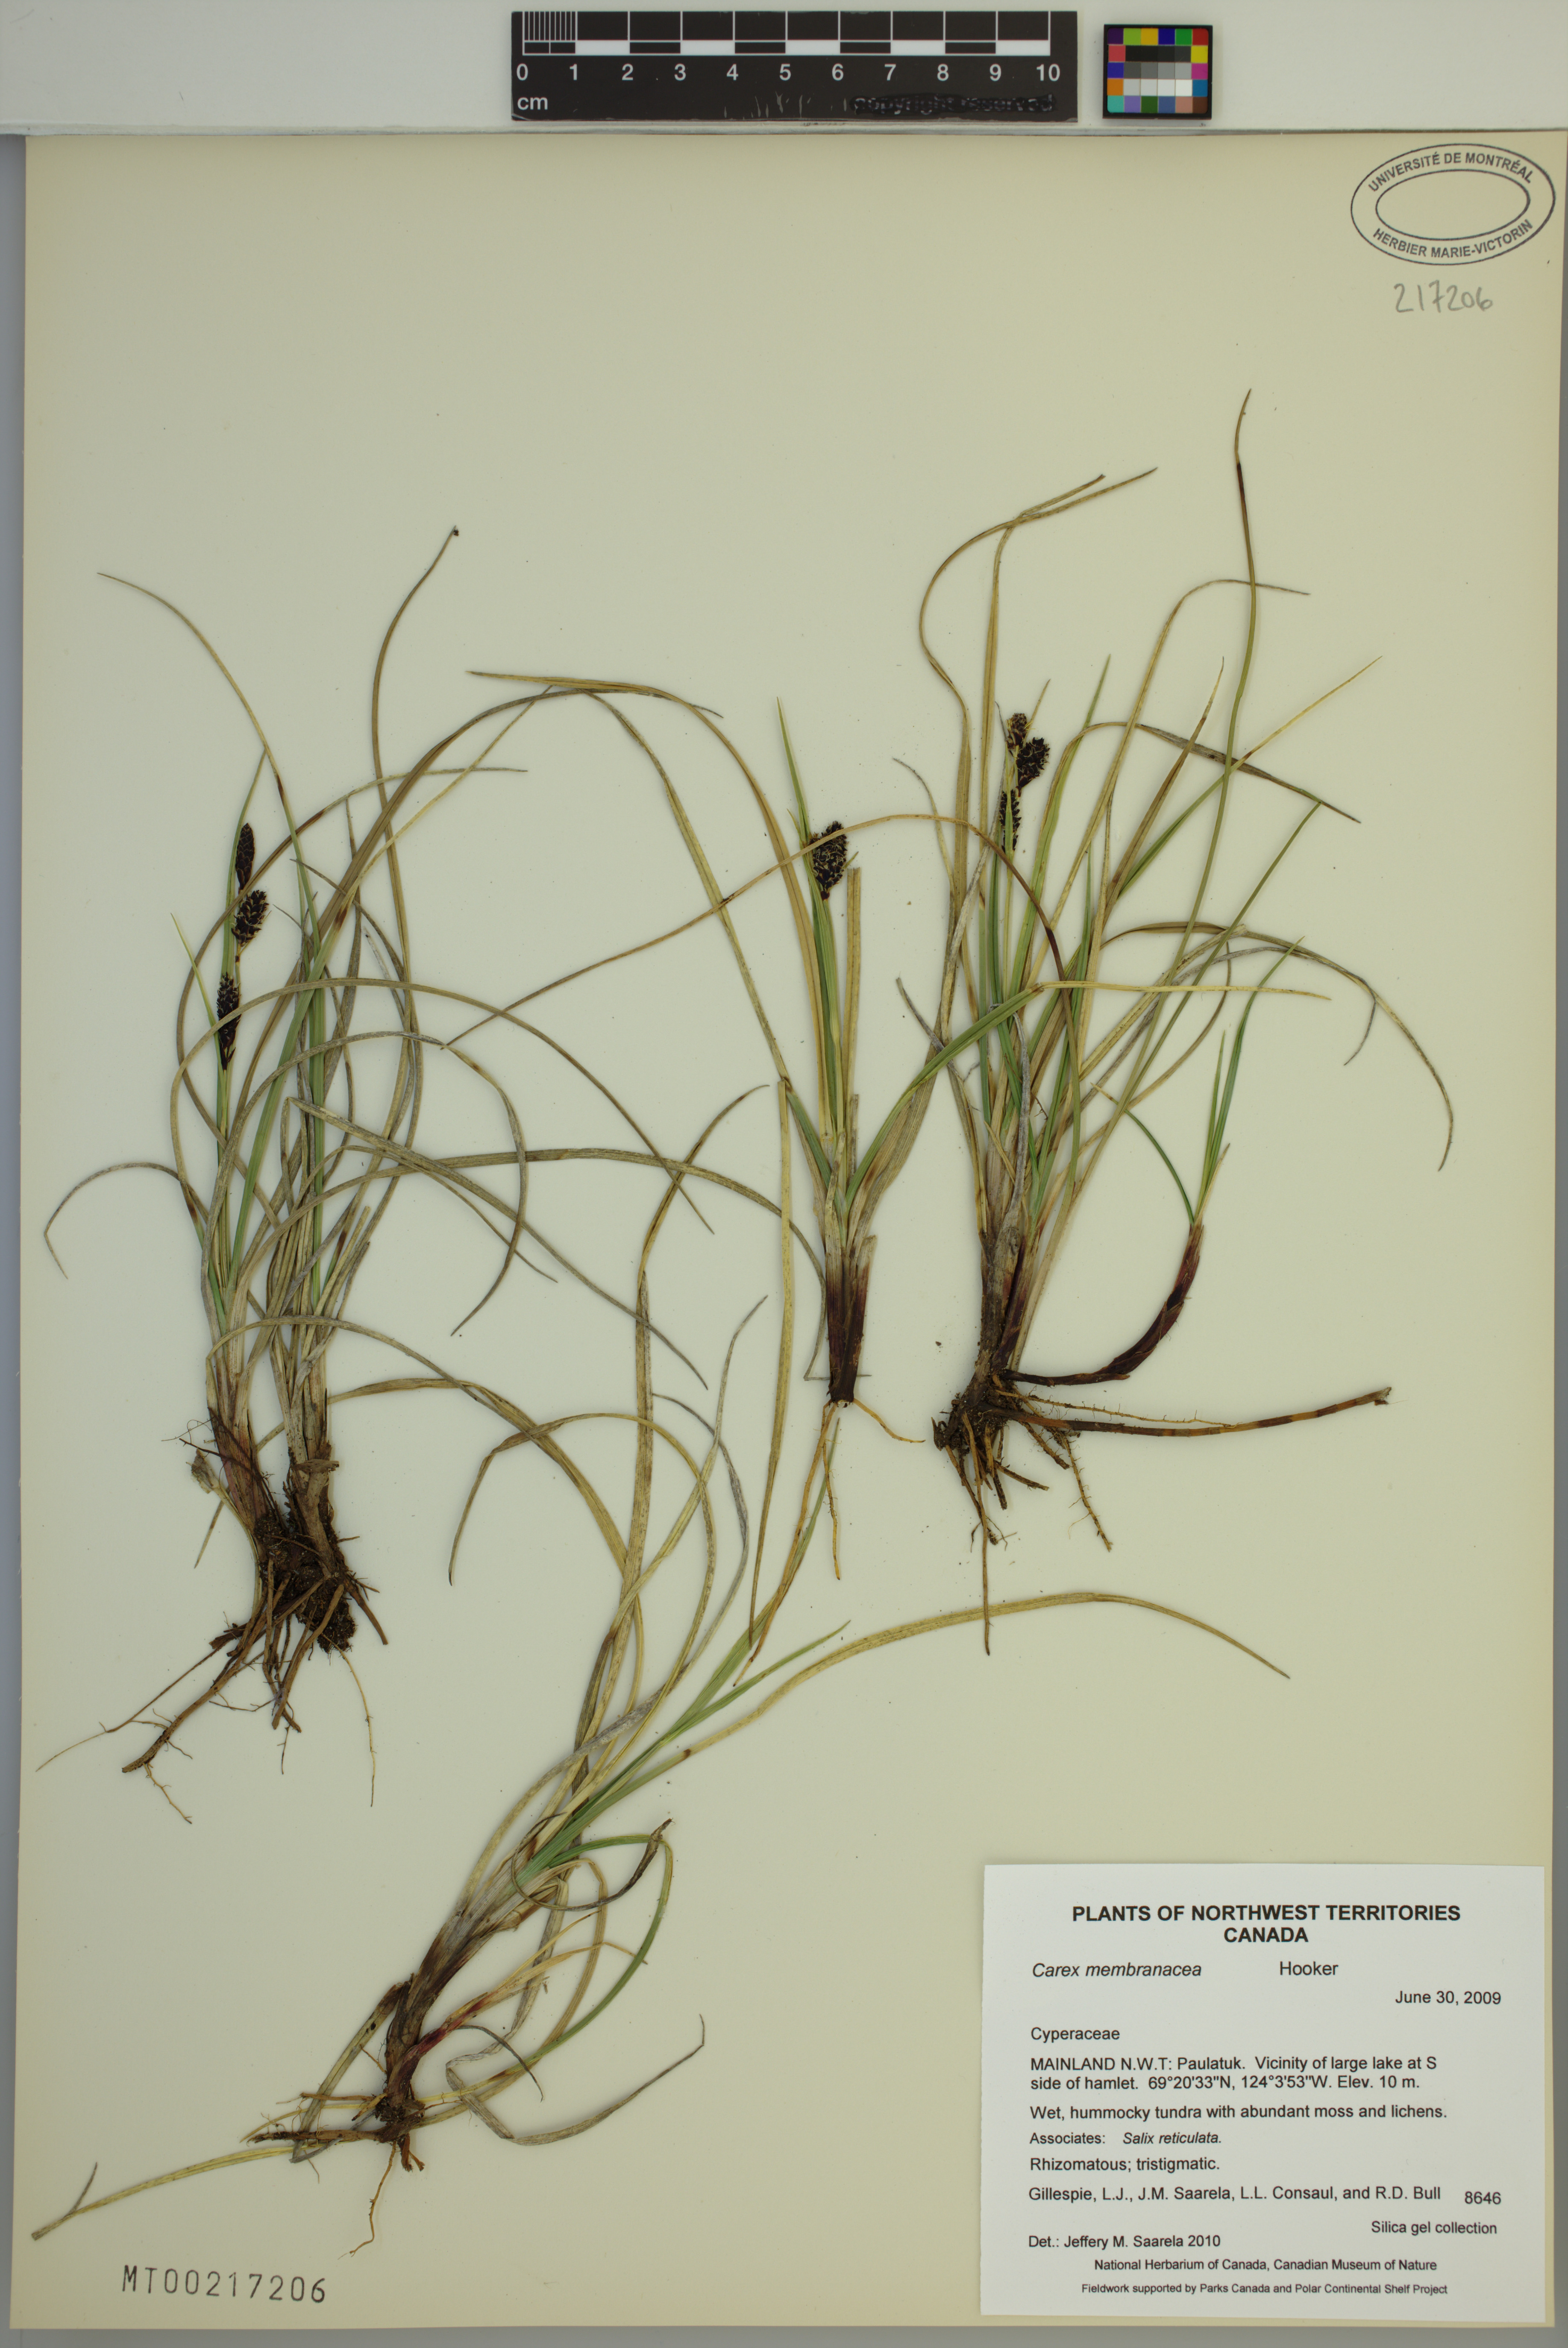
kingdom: Plantae
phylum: Tracheophyta
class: Liliopsida
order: Poales
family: Cyperaceae
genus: Carex
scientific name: Carex membranacea
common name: Fragile sedge
